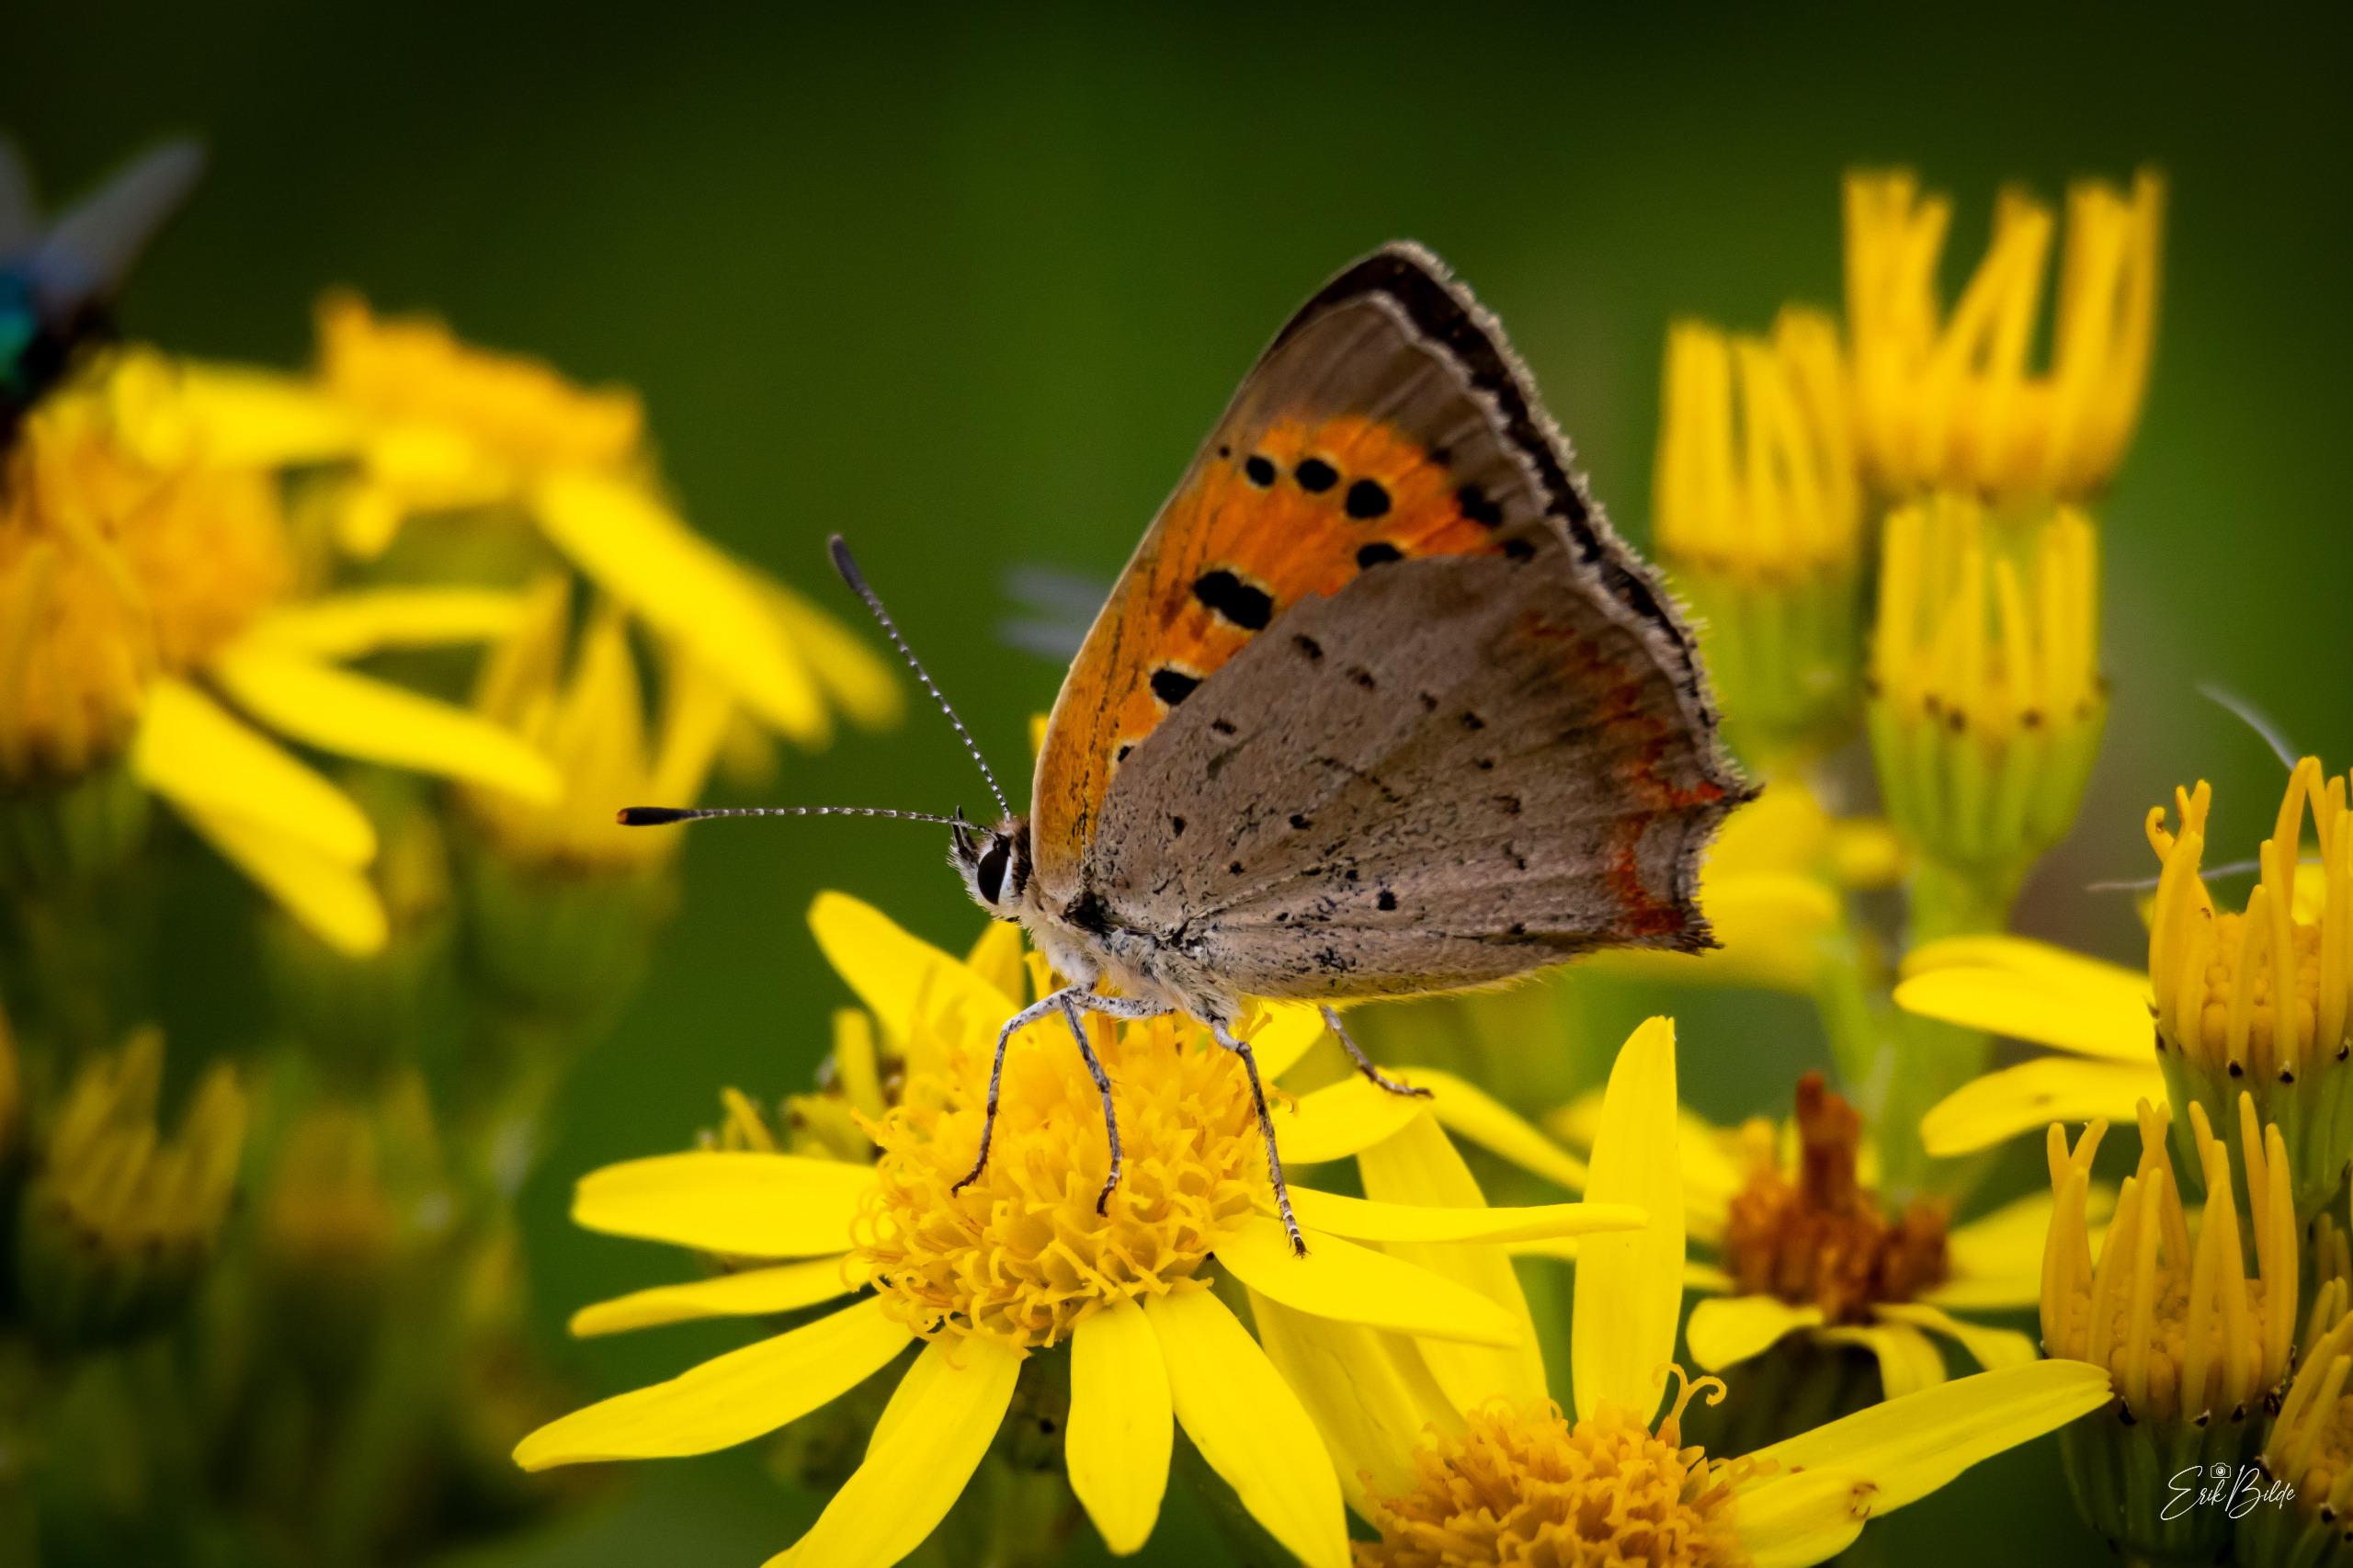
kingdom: Animalia
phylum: Arthropoda
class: Insecta
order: Lepidoptera
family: Lycaenidae
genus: Lycaena
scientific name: Lycaena phlaeas
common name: Lille ildfugl
